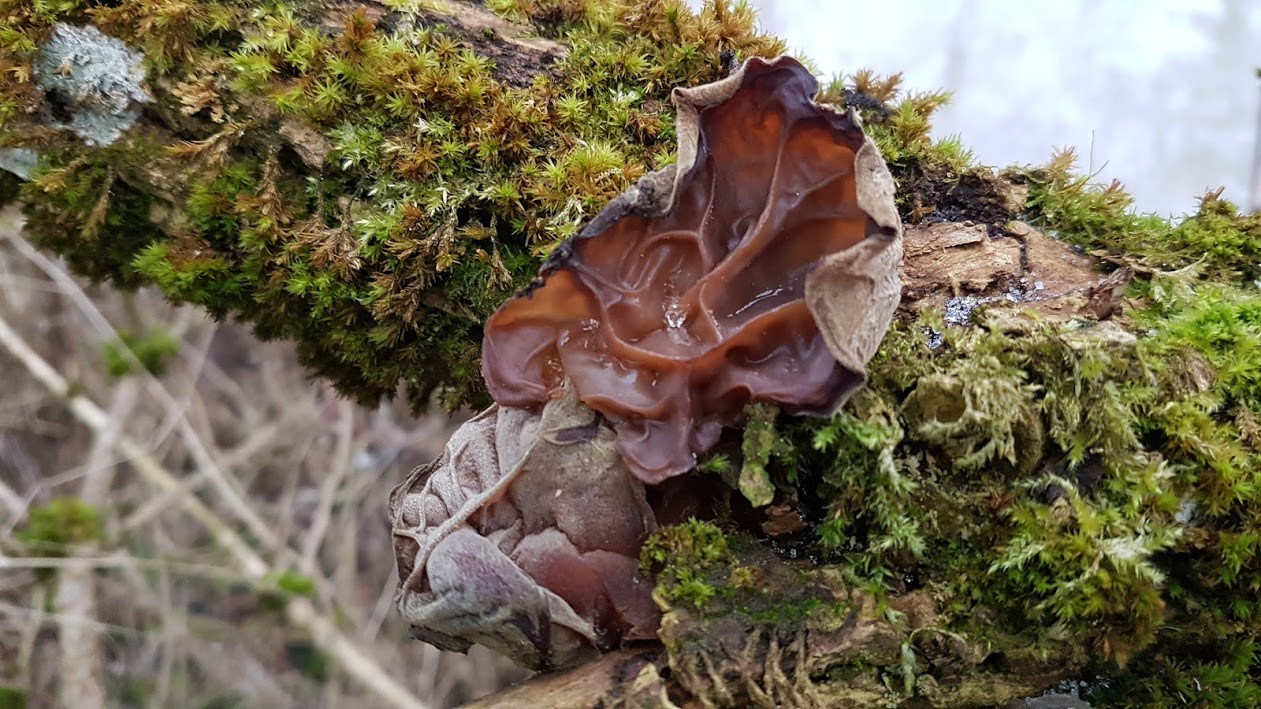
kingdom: Fungi
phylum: Basidiomycota
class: Agaricomycetes
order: Auriculariales
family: Auriculariaceae
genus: Auricularia
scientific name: Auricularia auricula-judae
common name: almindelig judasøre
